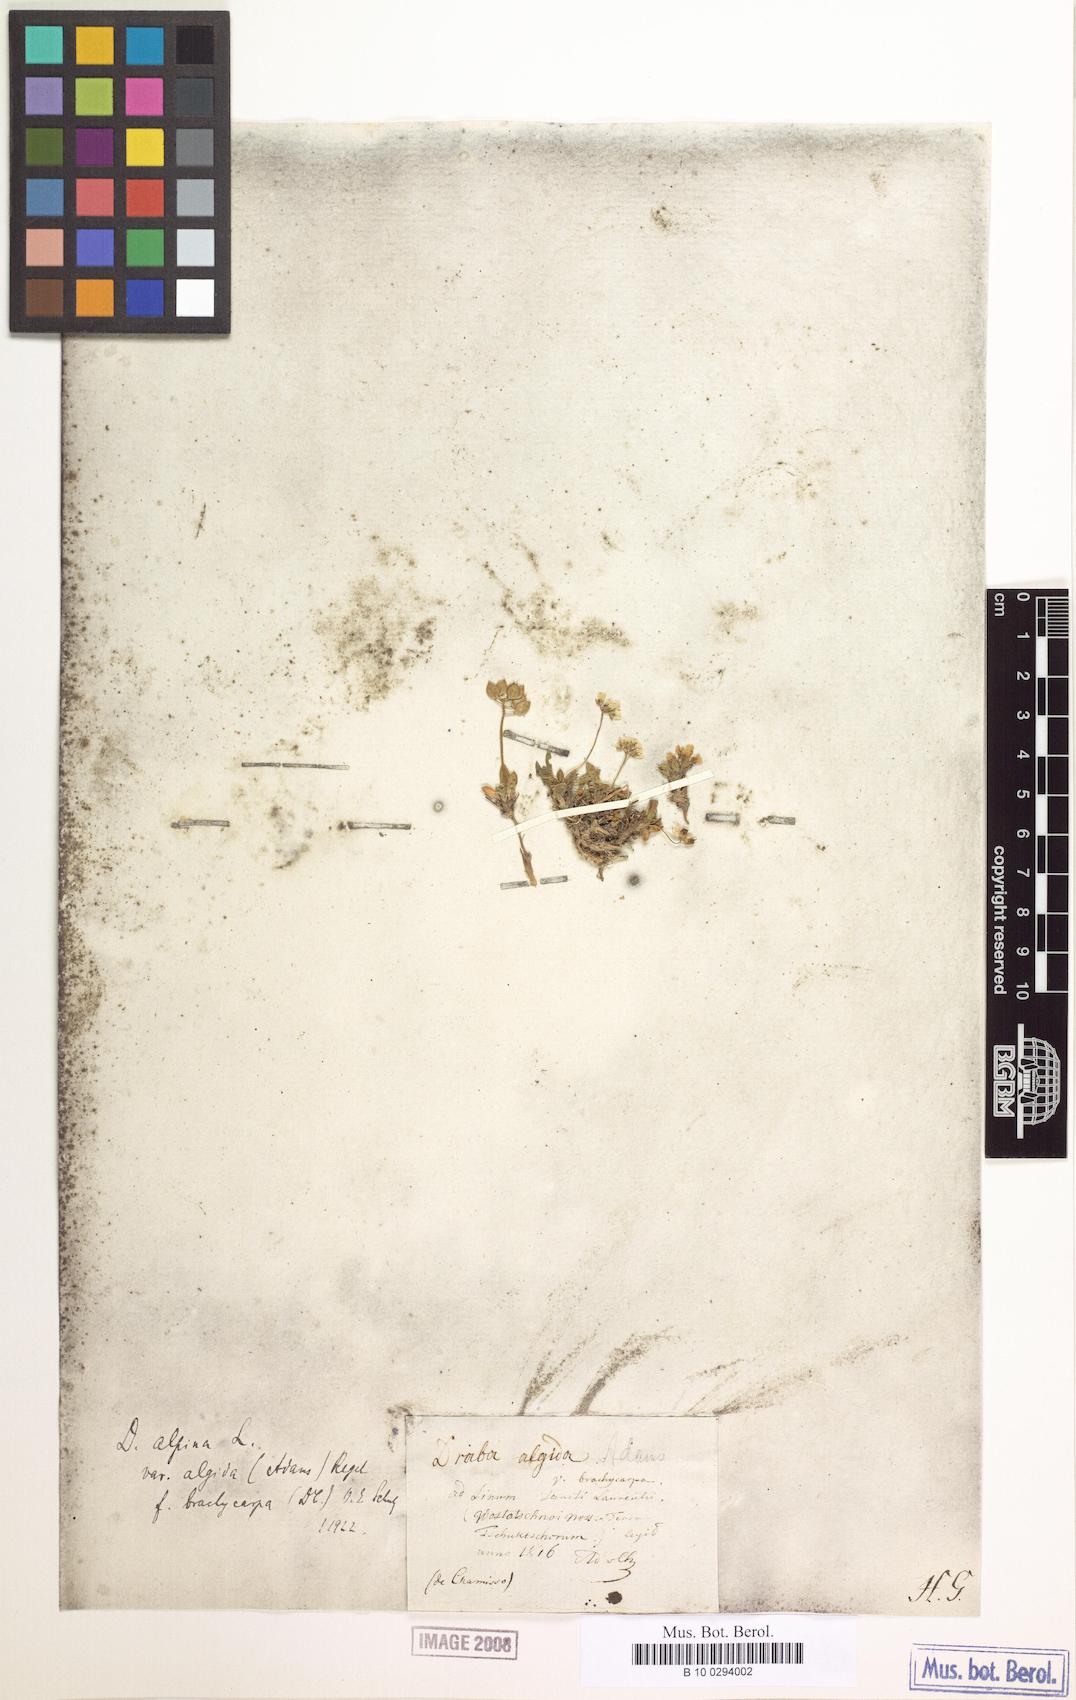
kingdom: Plantae
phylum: Tracheophyta
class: Magnoliopsida
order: Brassicales
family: Brassicaceae
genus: Draba
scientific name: Draba oreades
